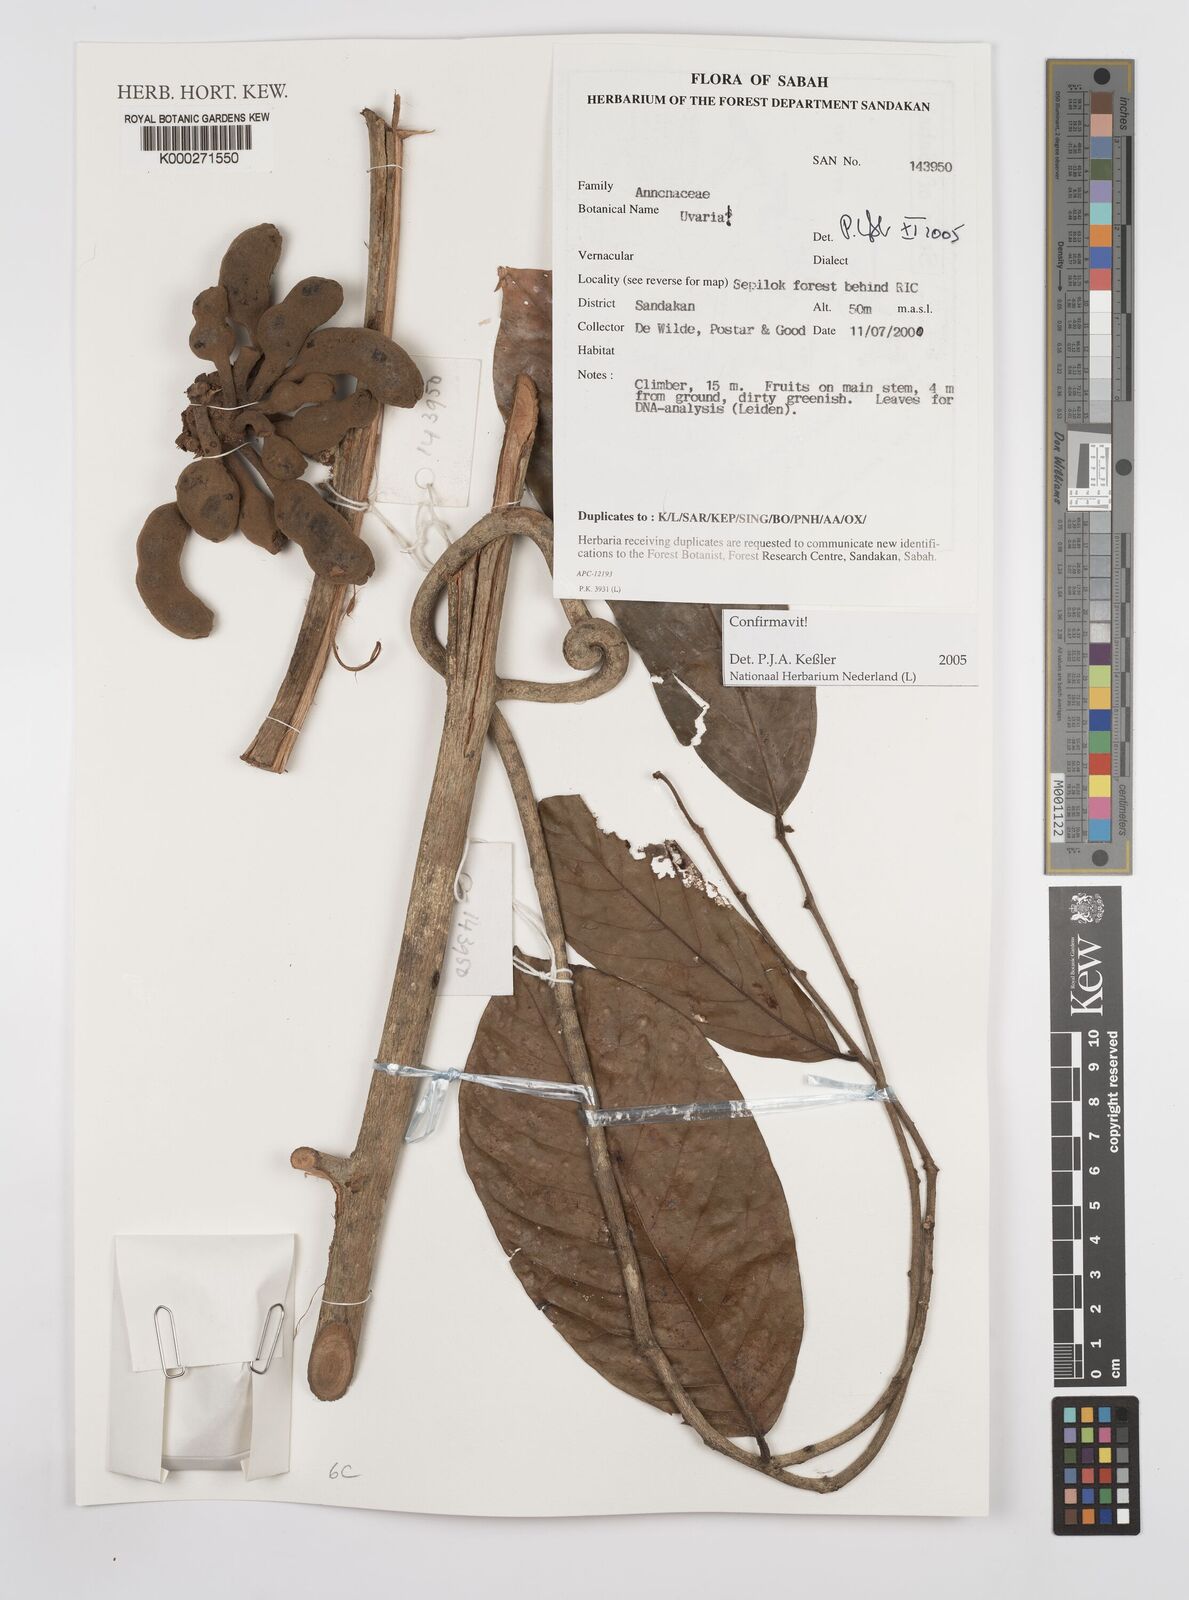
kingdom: Plantae
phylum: Tracheophyta
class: Magnoliopsida
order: Magnoliales
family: Annonaceae
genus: Uvaria
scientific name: Uvaria
